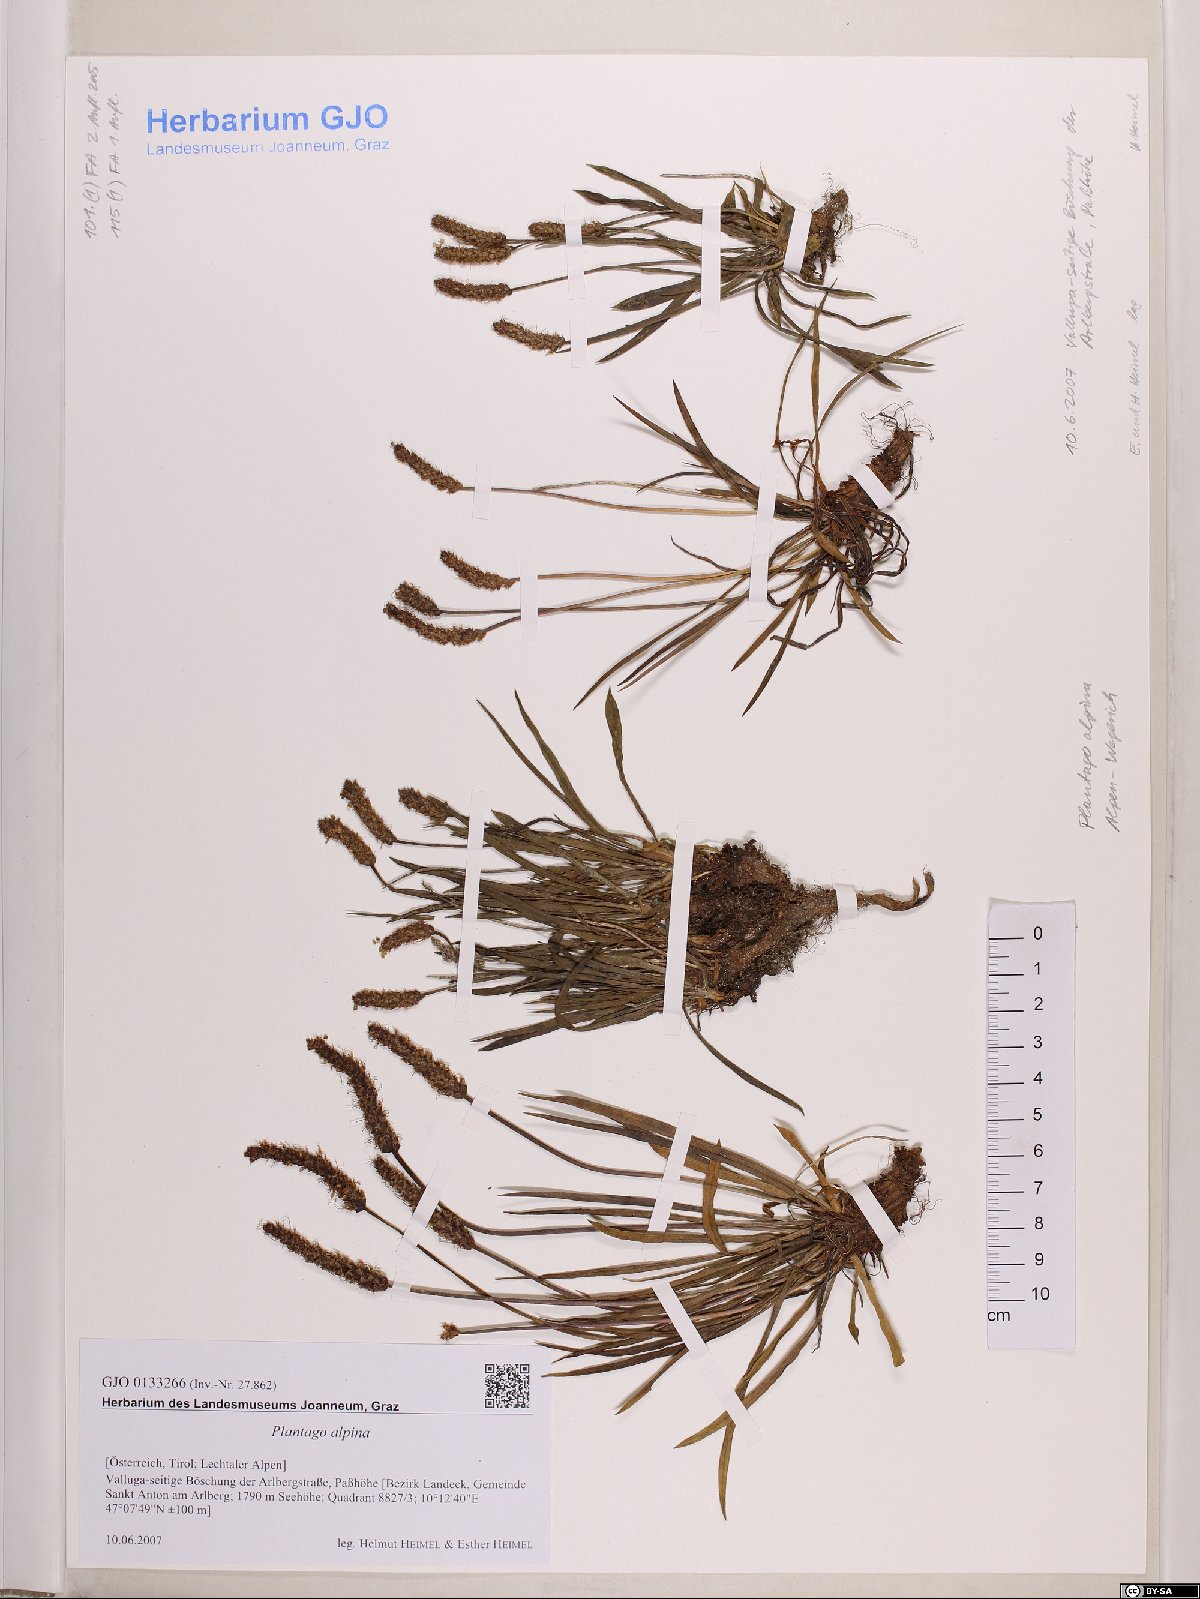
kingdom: Plantae
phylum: Tracheophyta
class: Magnoliopsida
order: Lamiales
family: Plantaginaceae
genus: Plantago
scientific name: Plantago alpina
